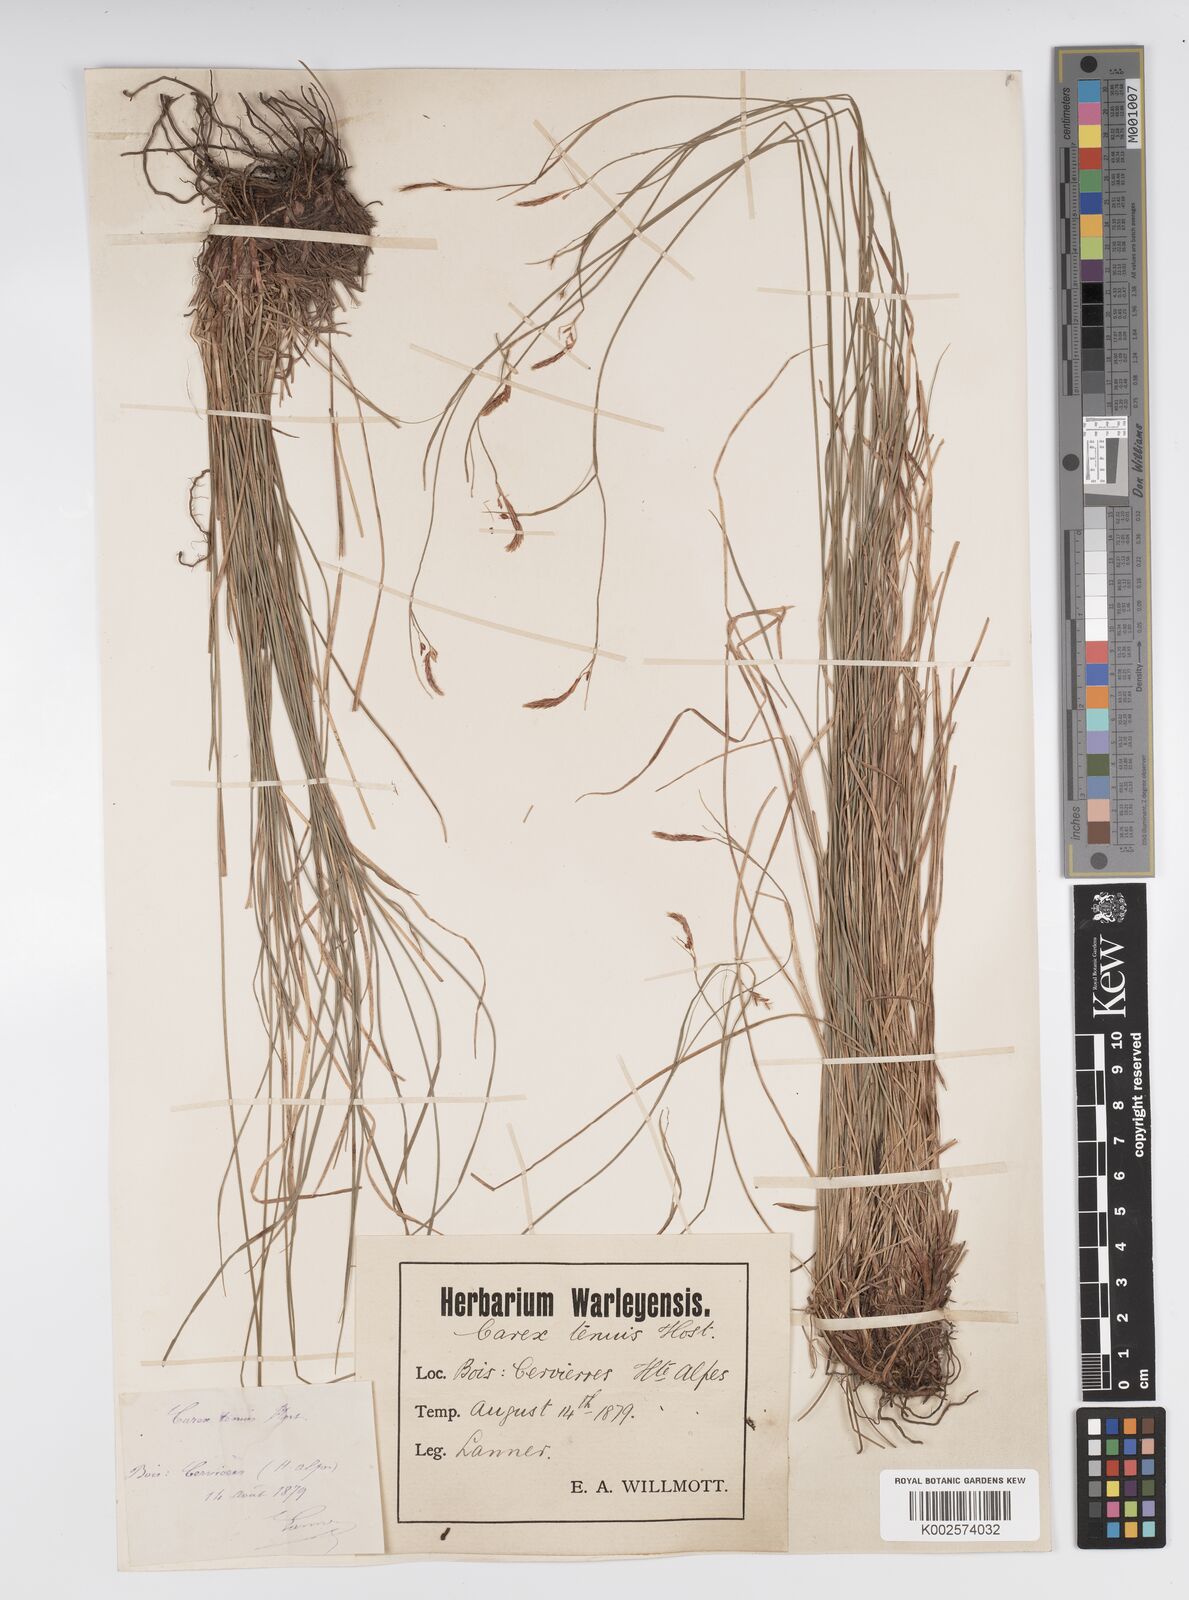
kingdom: Plantae
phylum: Tracheophyta
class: Liliopsida
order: Poales
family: Cyperaceae
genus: Carex
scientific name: Carex brachystachys
